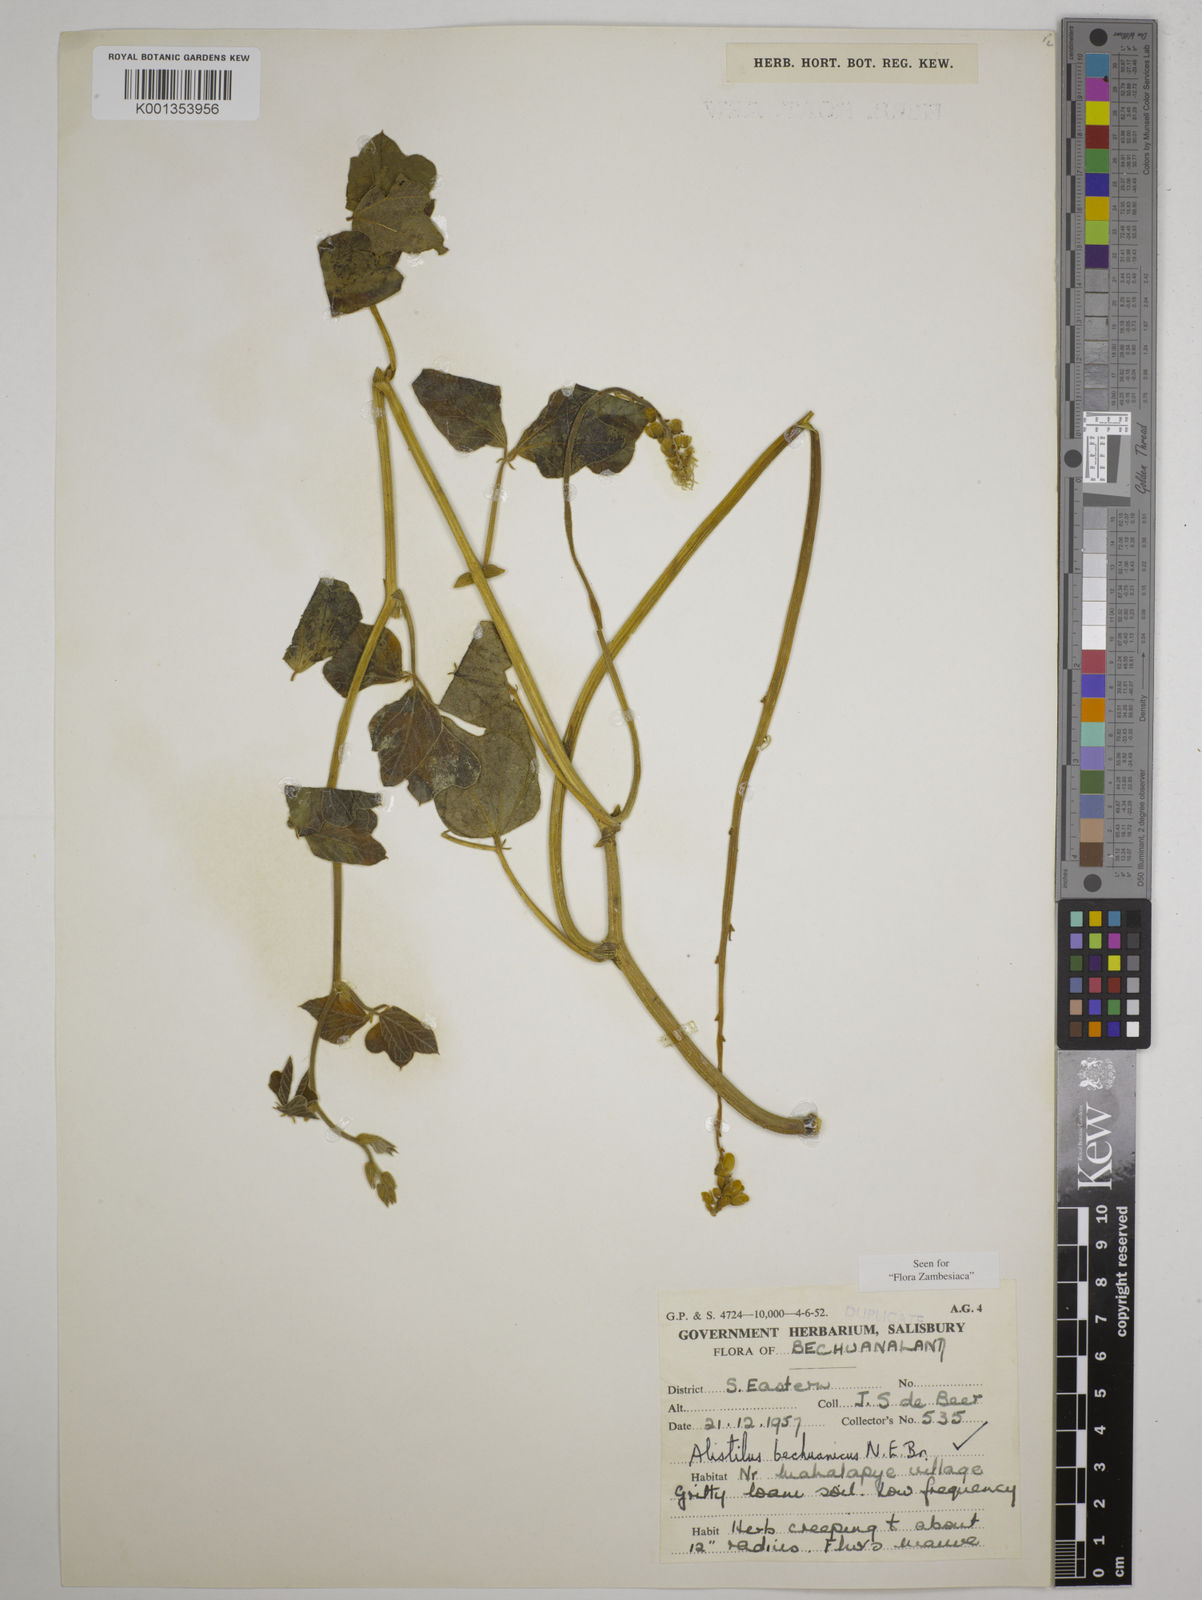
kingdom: Plantae
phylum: Tracheophyta
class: Magnoliopsida
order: Fabales
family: Fabaceae
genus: Alistilus
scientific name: Alistilus bechuanicus
